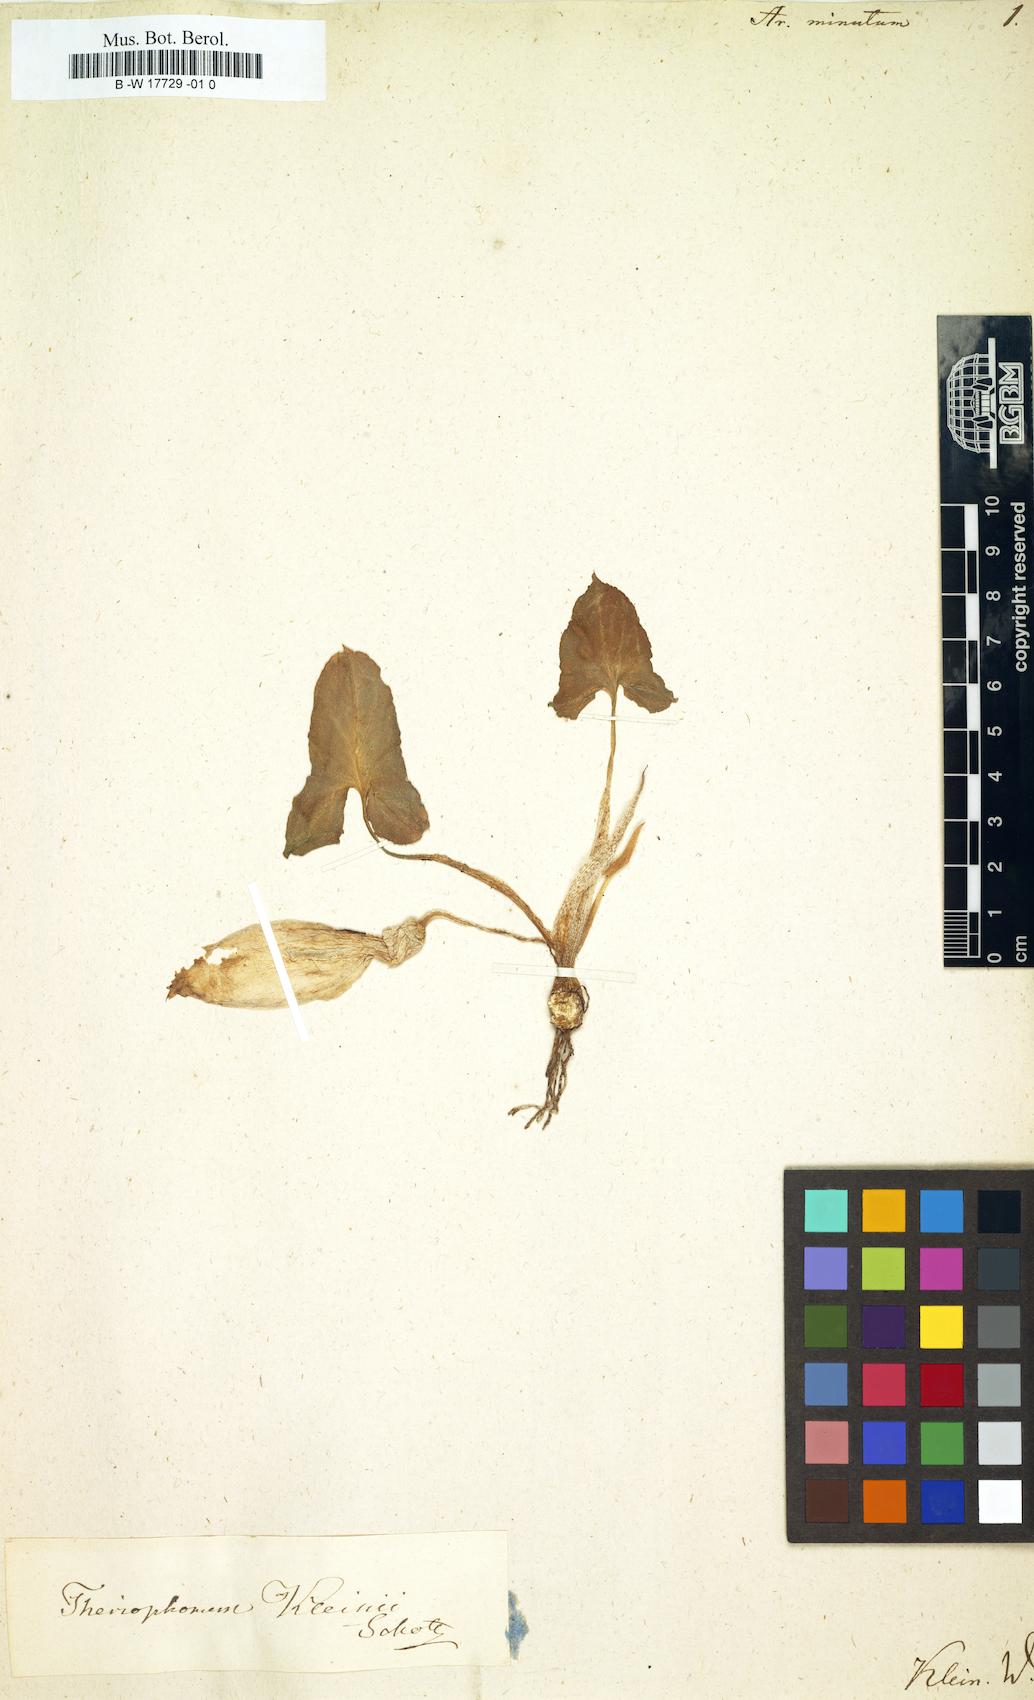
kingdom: Plantae
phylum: Tracheophyta
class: Liliopsida
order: Alismatales
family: Araceae
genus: Theriophonum
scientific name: Theriophonum minutum
